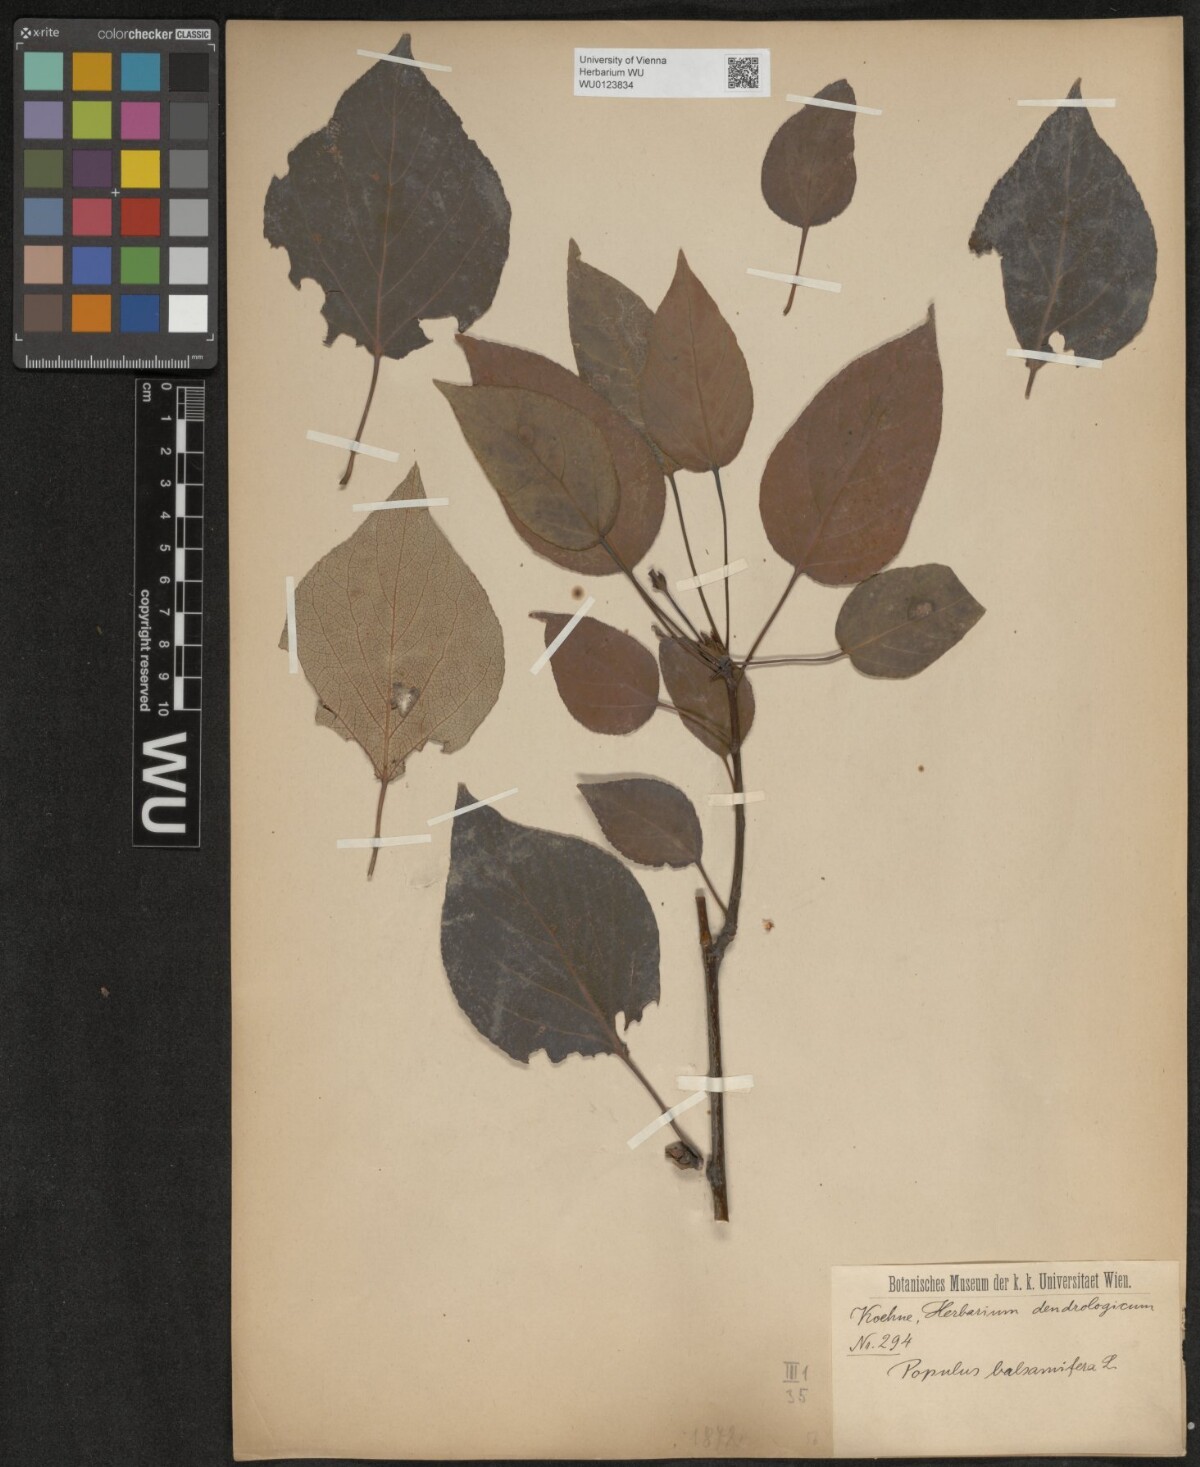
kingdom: Plantae
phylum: Tracheophyta
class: Magnoliopsida
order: Malpighiales
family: Salicaceae
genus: Populus
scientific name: Populus balsamifera
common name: Balsam poplar
